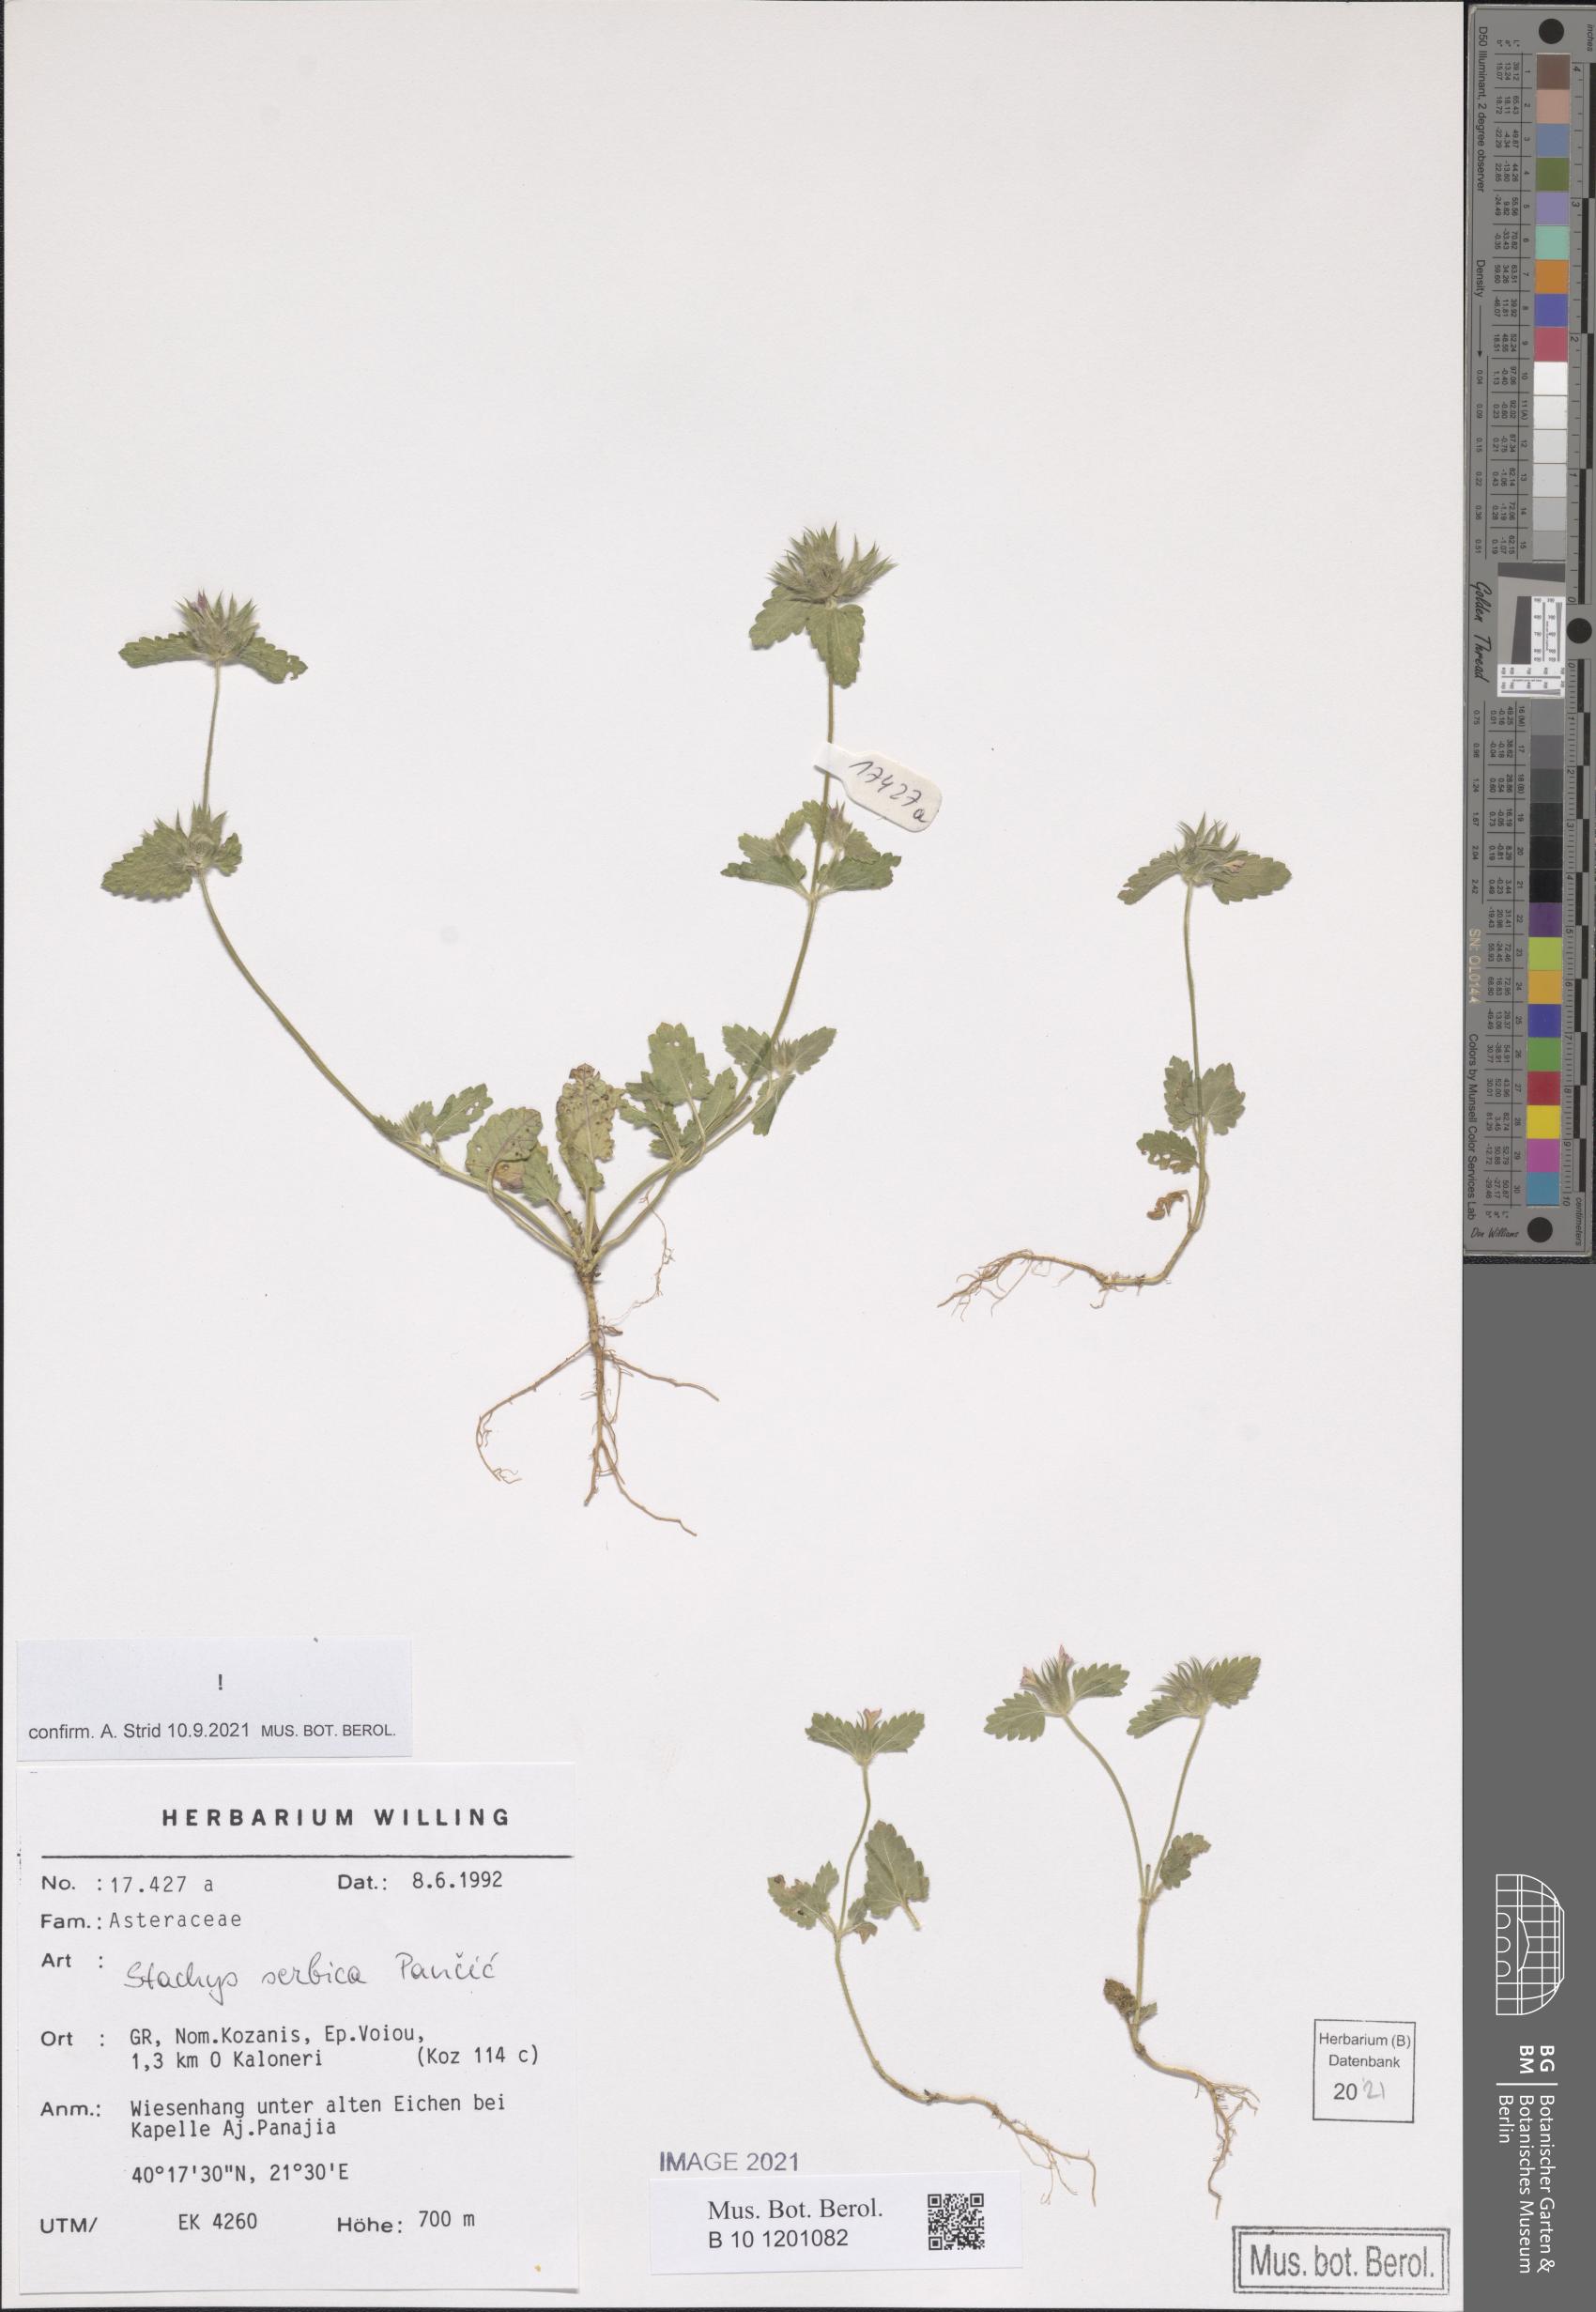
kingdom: Plantae
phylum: Tracheophyta
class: Magnoliopsida
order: Lamiales
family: Lamiaceae
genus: Stachys
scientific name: Stachys serbica
